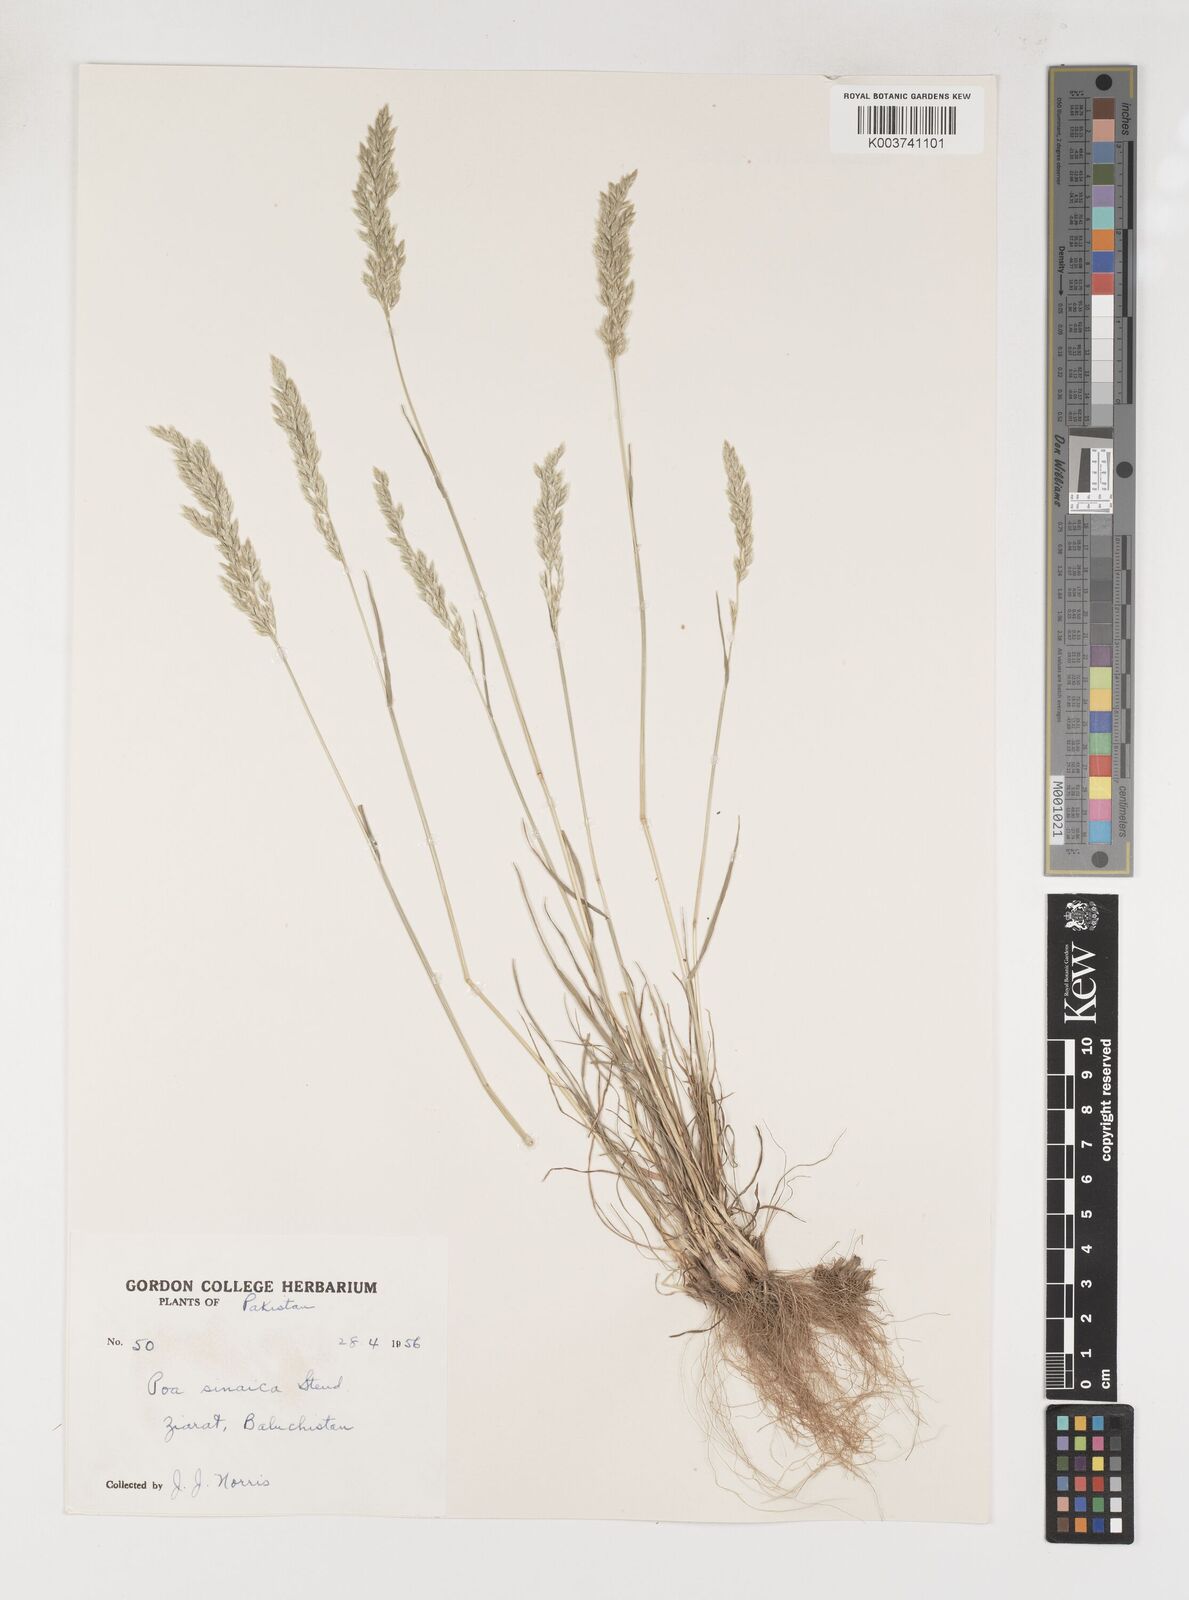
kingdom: Plantae
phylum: Tracheophyta
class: Liliopsida
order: Poales
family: Poaceae
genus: Poa
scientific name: Poa sinaica
